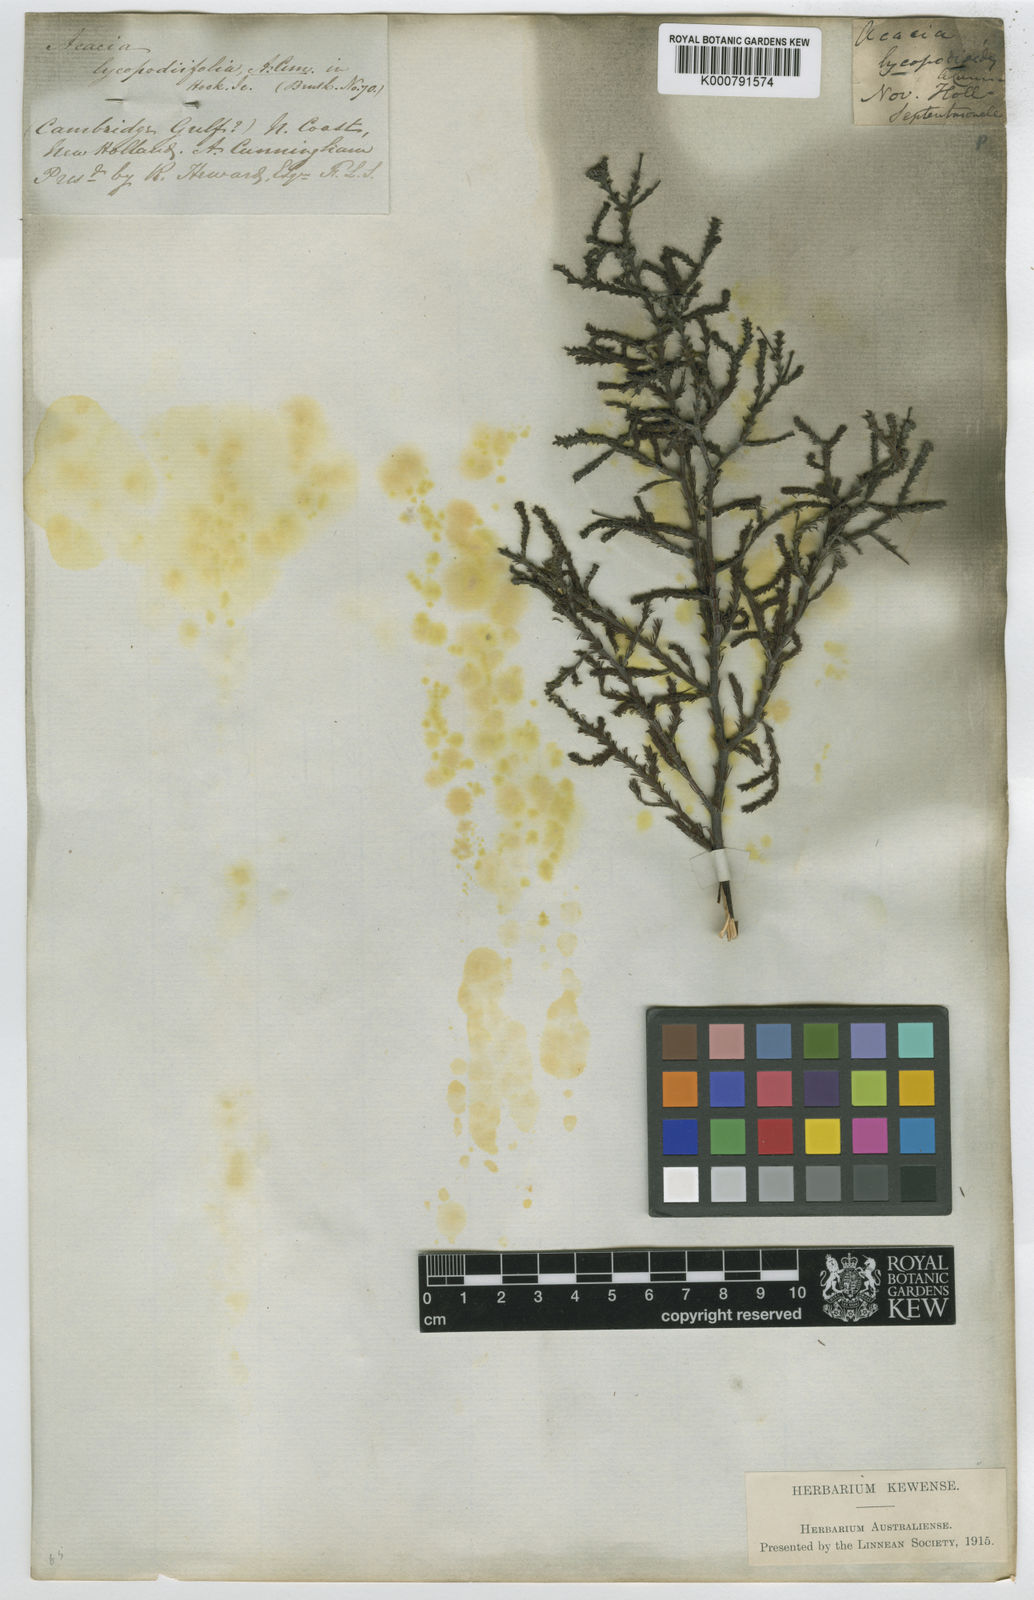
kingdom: Plantae
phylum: Tracheophyta
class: Magnoliopsida
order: Fabales
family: Fabaceae
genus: Acacia
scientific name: Acacia lycopodiifolia
